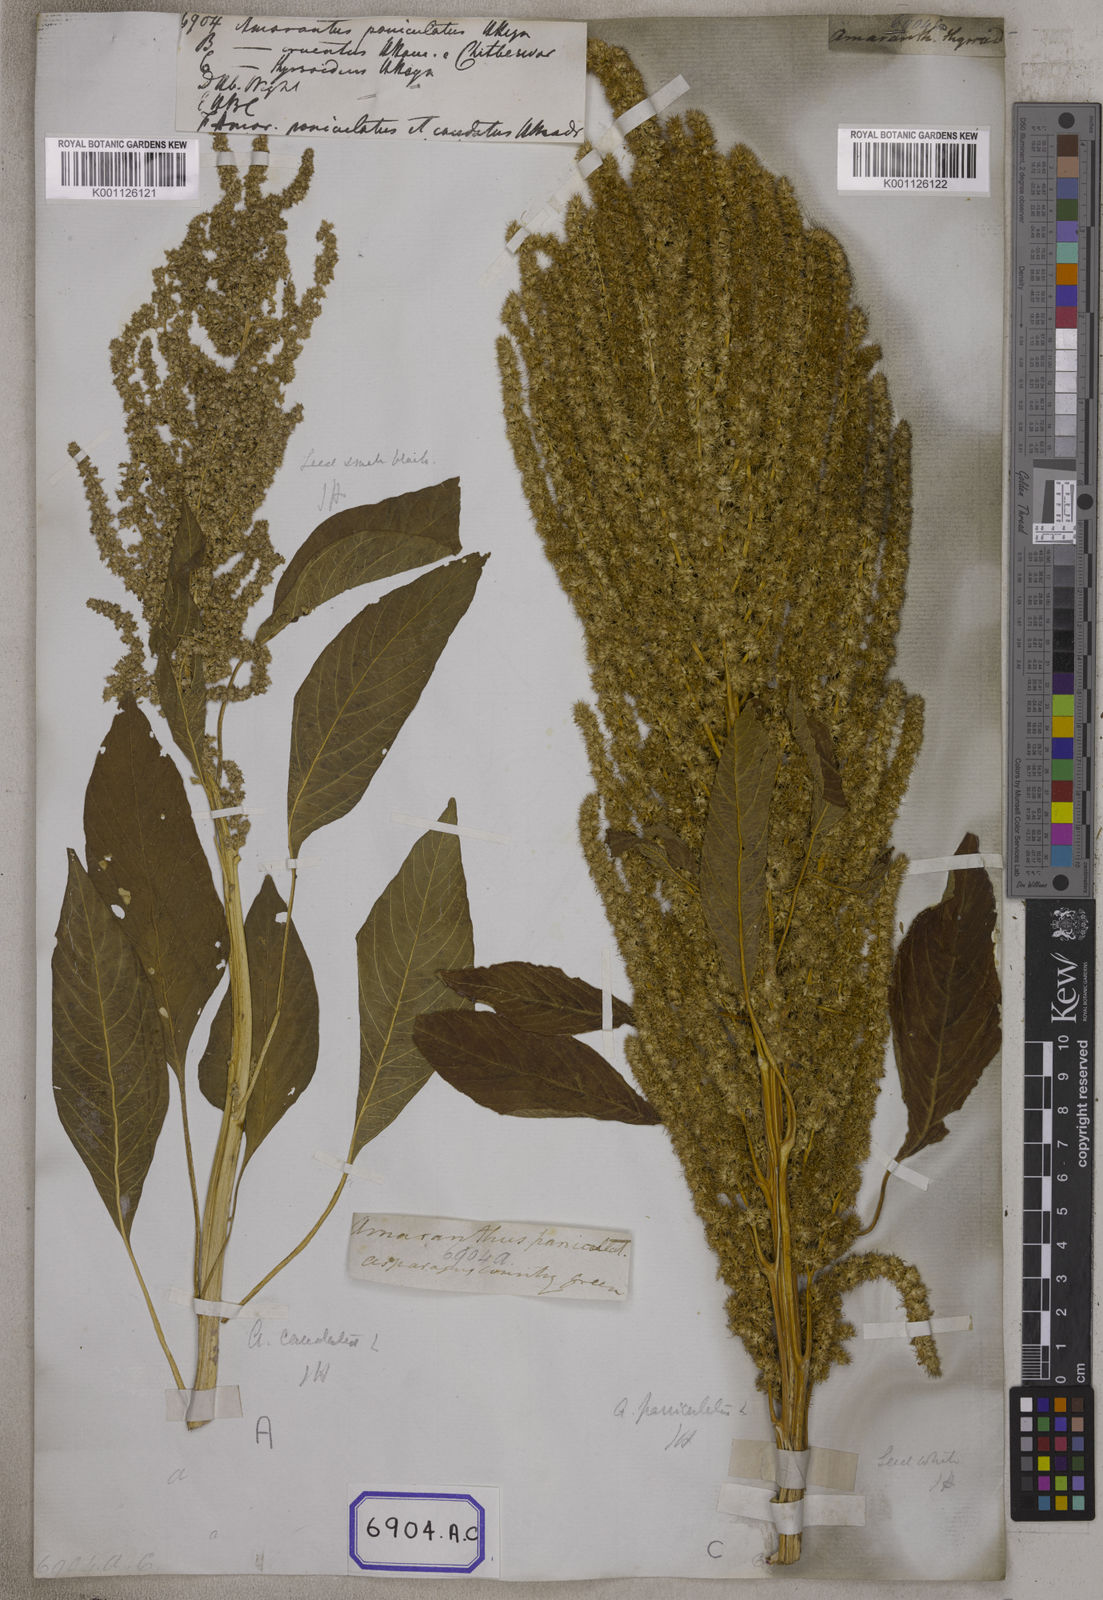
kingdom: Plantae
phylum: Tracheophyta
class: Magnoliopsida
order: Caryophyllales
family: Amaranthaceae
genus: Amaranthus
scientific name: Amaranthus
